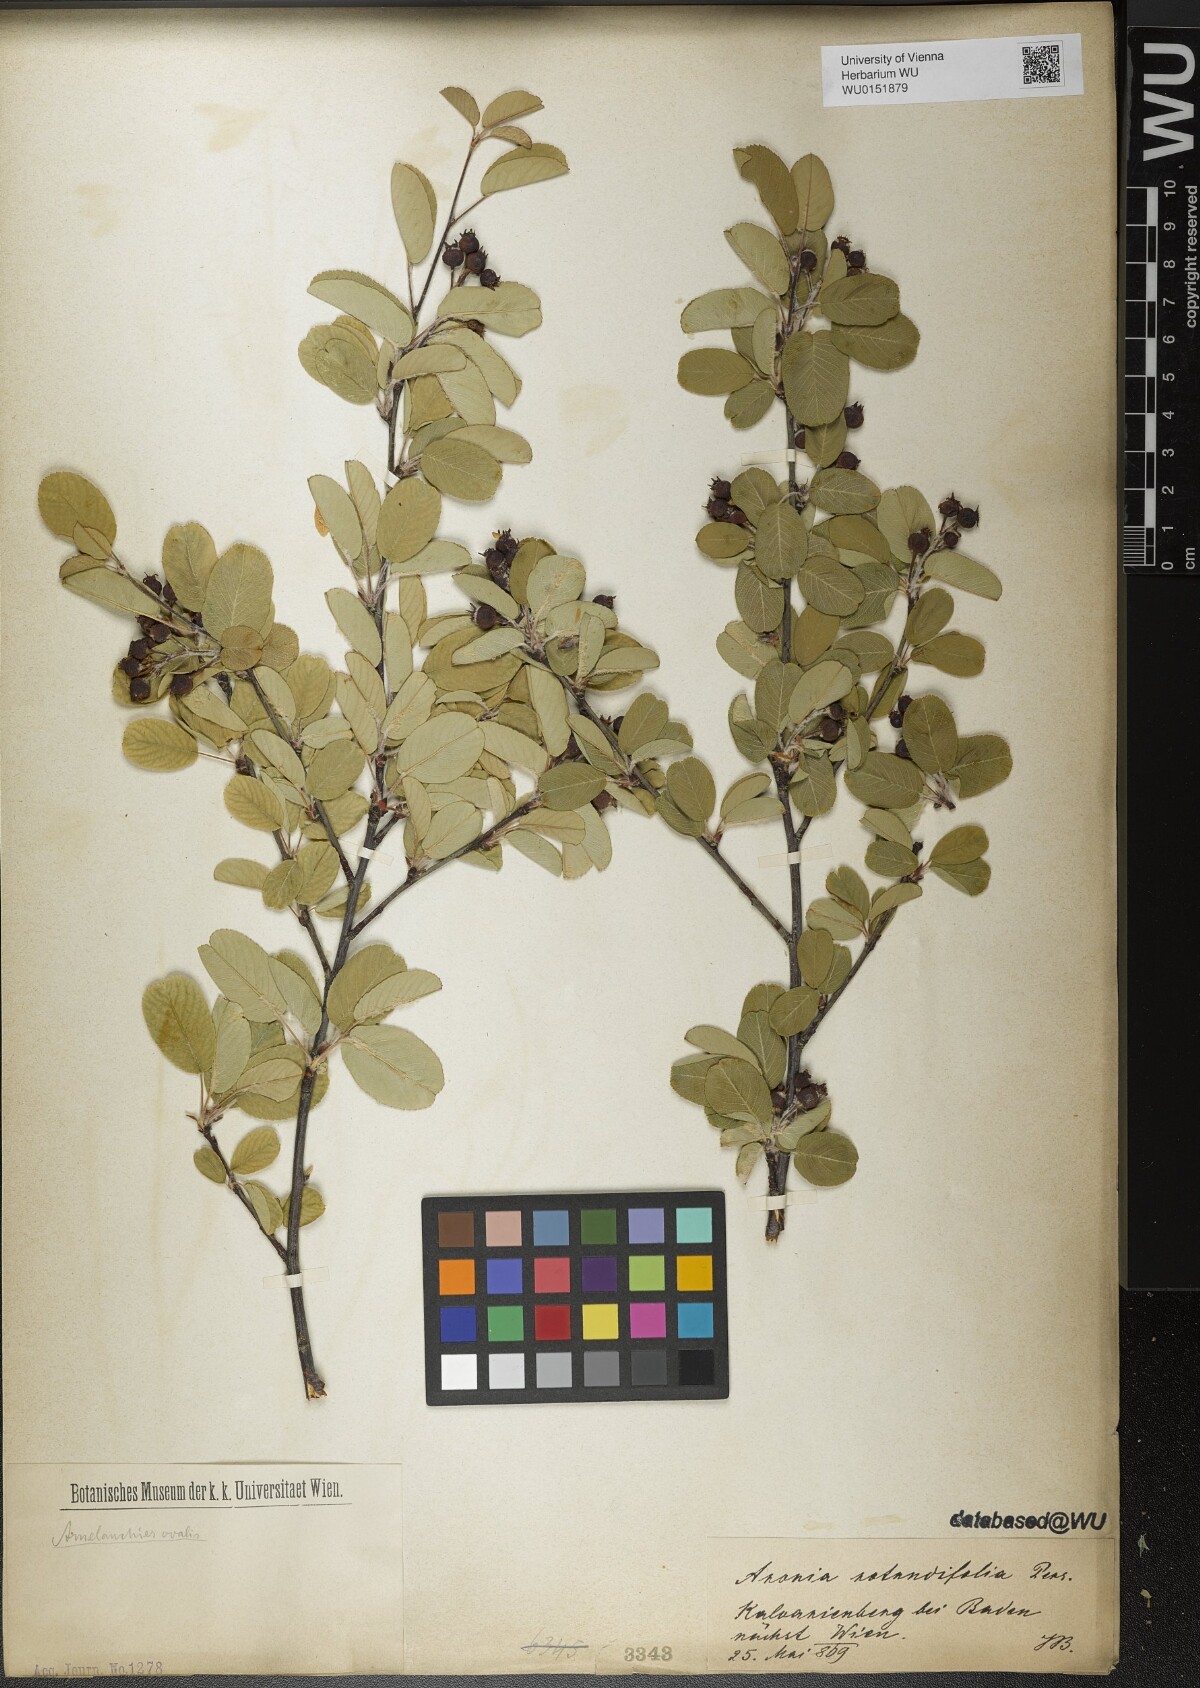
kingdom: Plantae
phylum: Tracheophyta
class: Magnoliopsida
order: Rosales
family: Rosaceae
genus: Amelanchier
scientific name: Amelanchier ovalis
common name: Serviceberry
